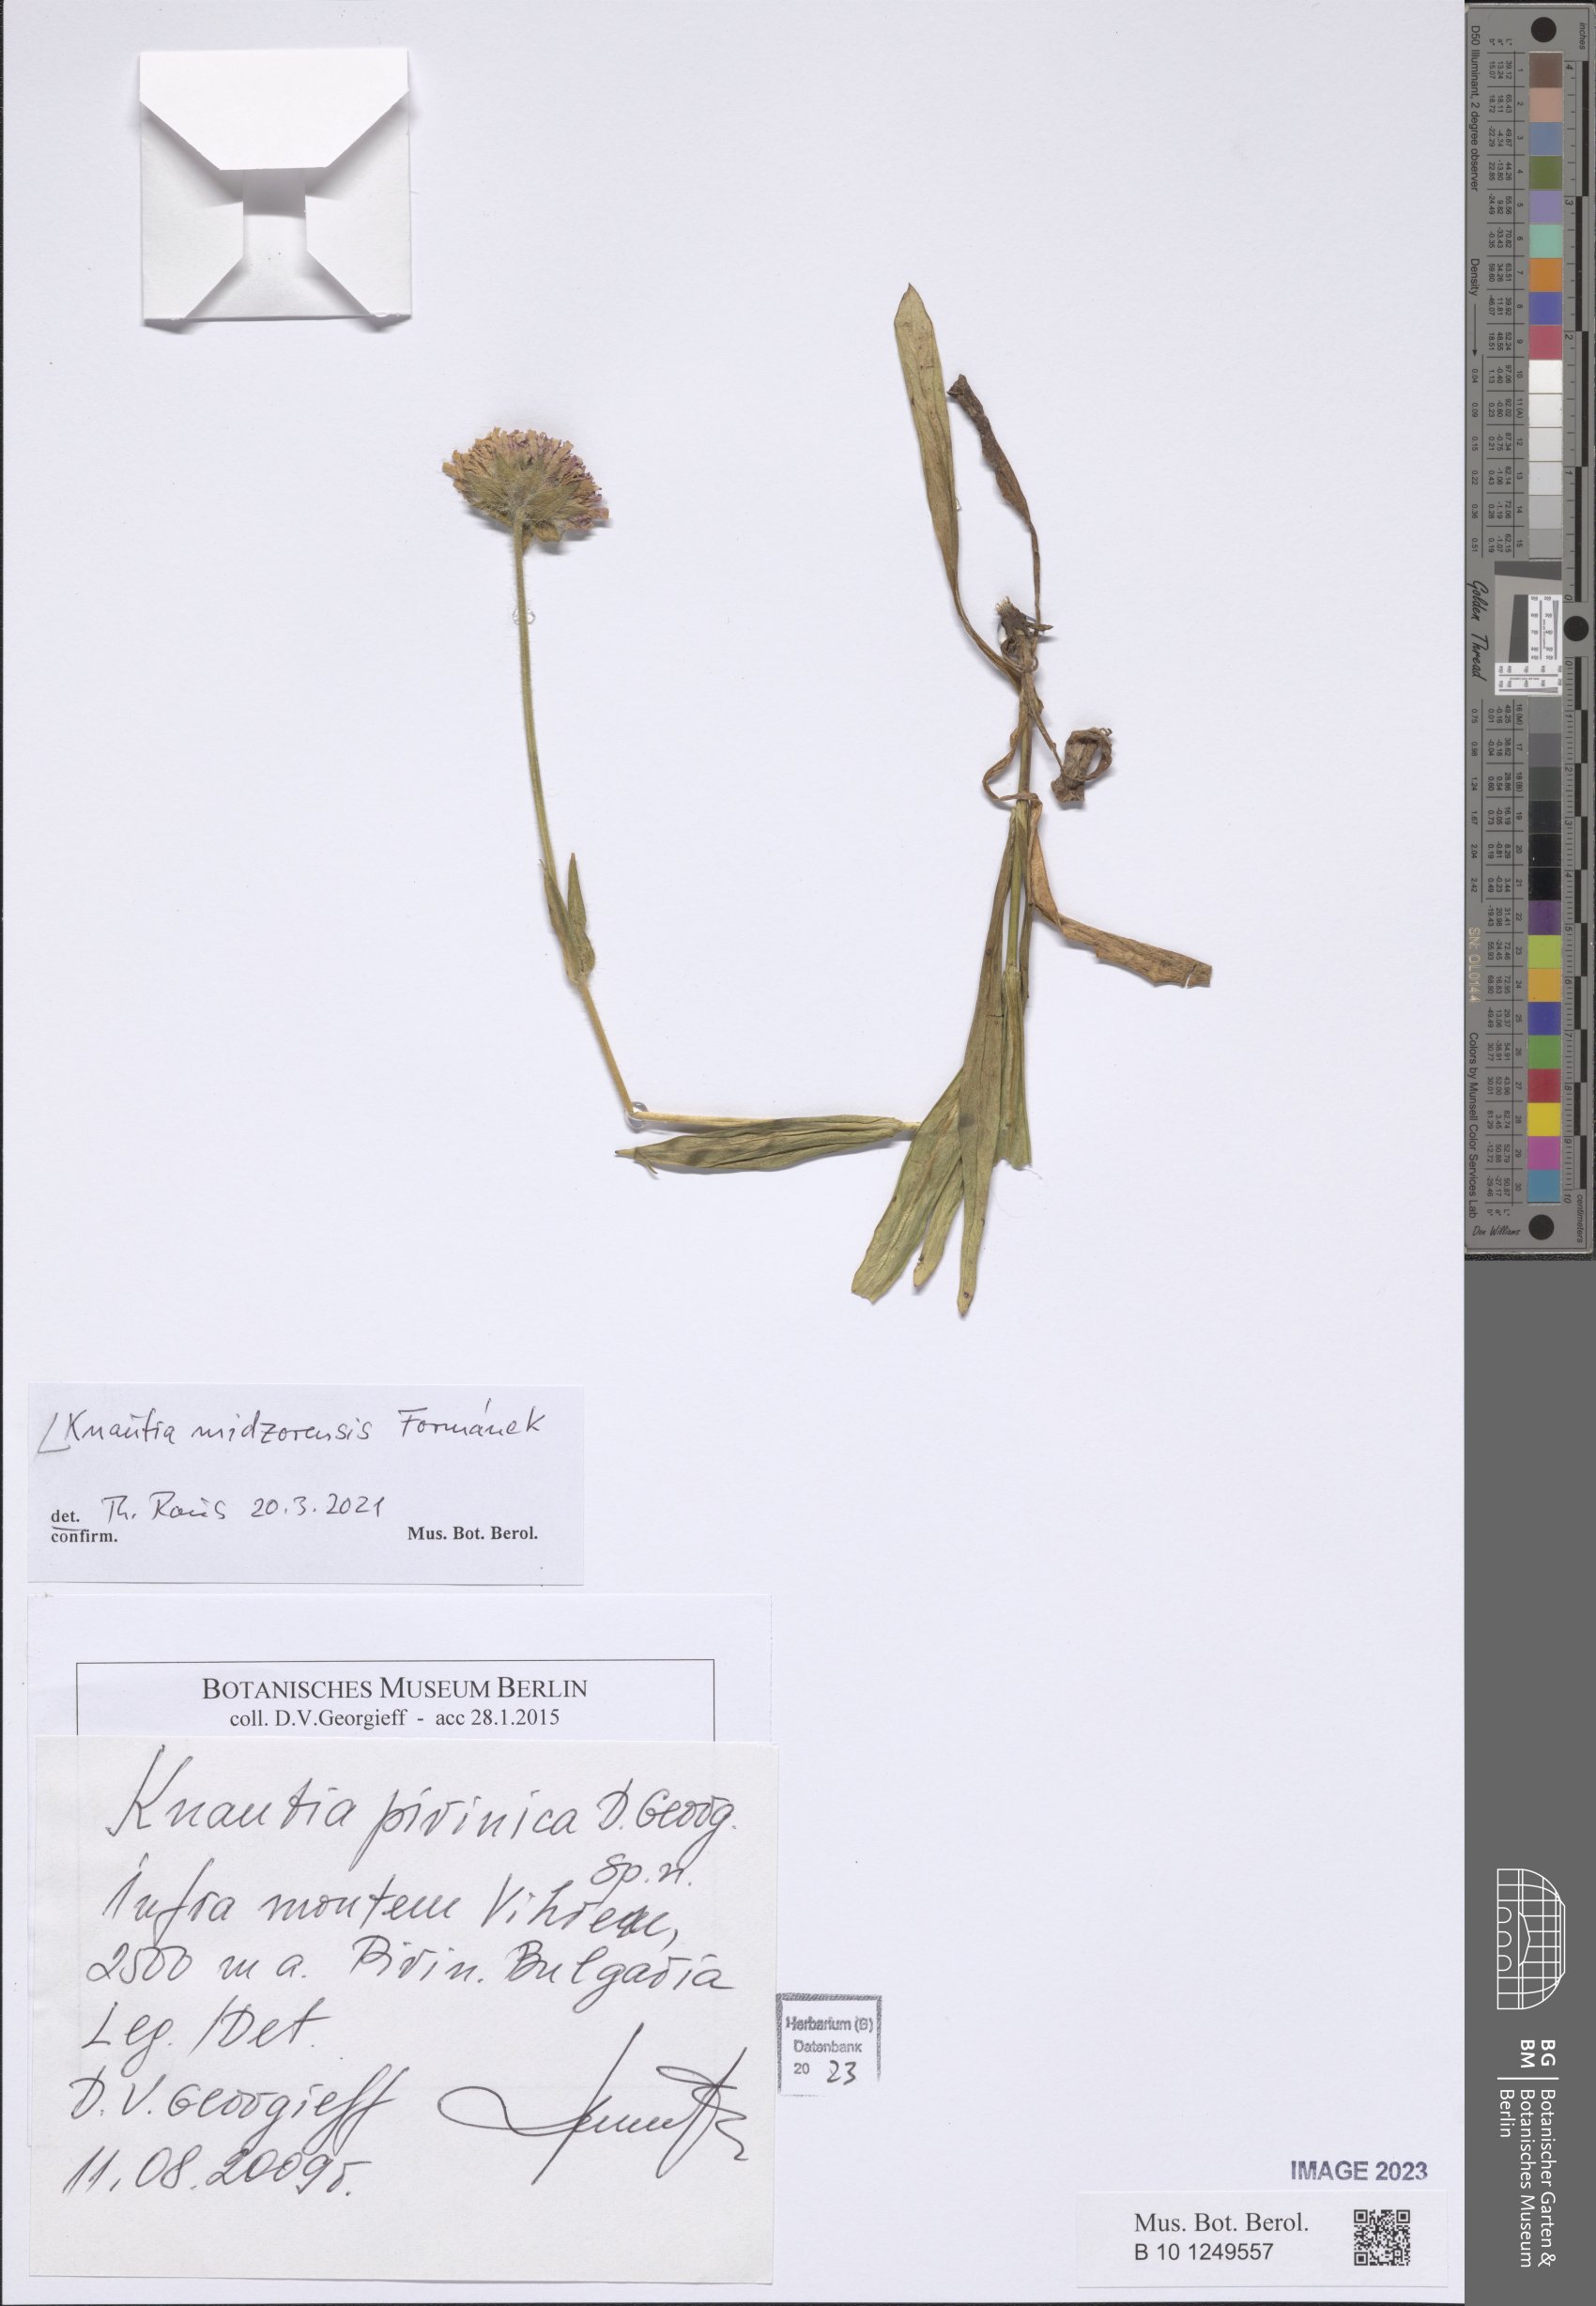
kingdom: Plantae
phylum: Tracheophyta
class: Magnoliopsida
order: Dipsacales
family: Caprifoliaceae
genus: Knautia
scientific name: Knautia midzorensis
